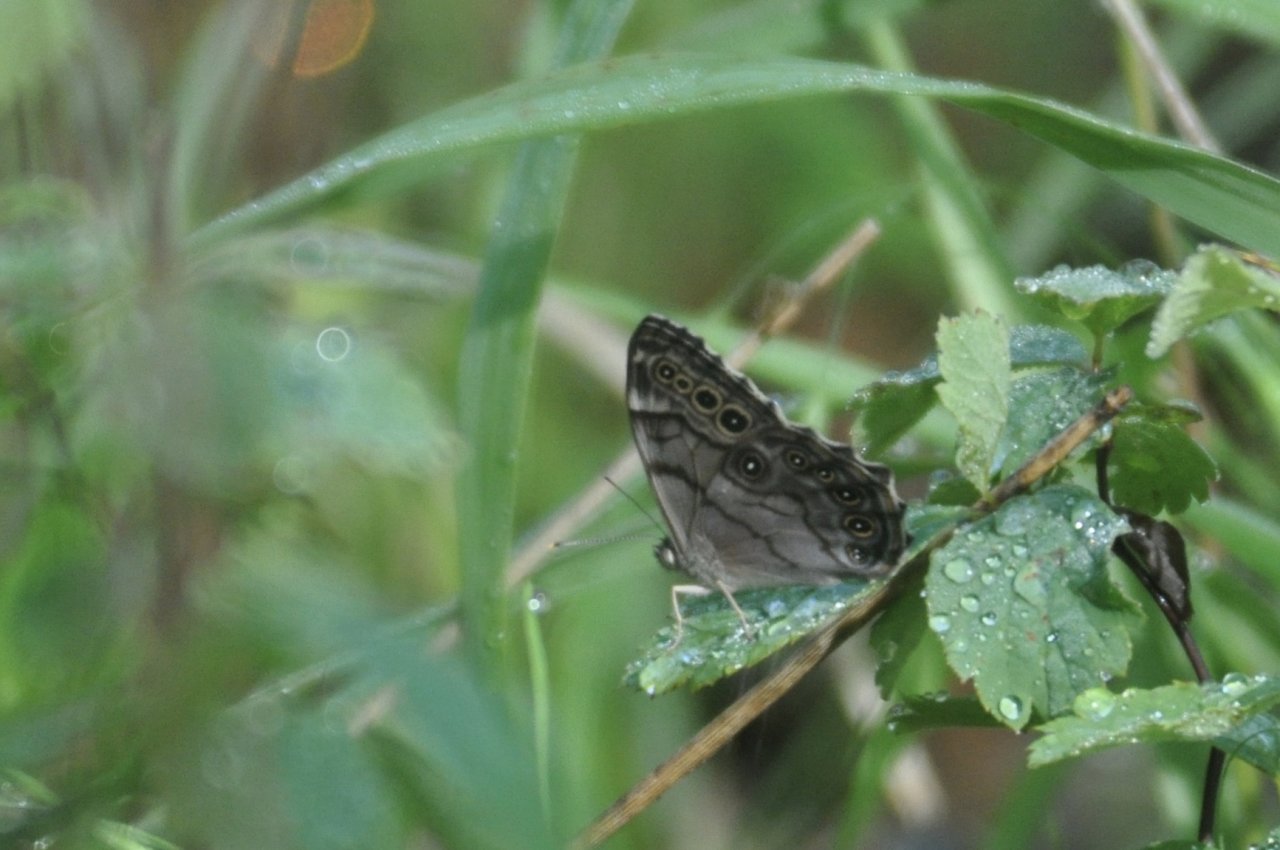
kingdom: Animalia
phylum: Arthropoda
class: Insecta
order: Lepidoptera
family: Nymphalidae
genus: Lethe
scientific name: Lethe anthedon
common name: Northern Pearly-Eye
